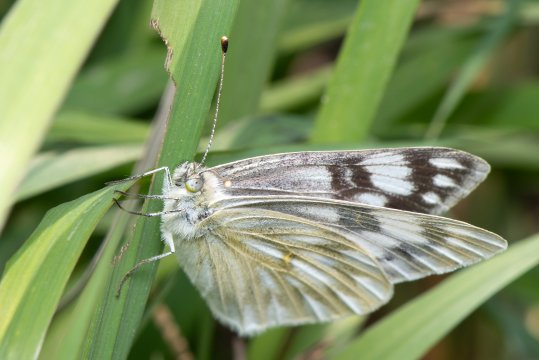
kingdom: Animalia
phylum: Arthropoda
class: Insecta
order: Lepidoptera
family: Pieridae
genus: Pontia
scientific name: Pontia occidentalis
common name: Western White
